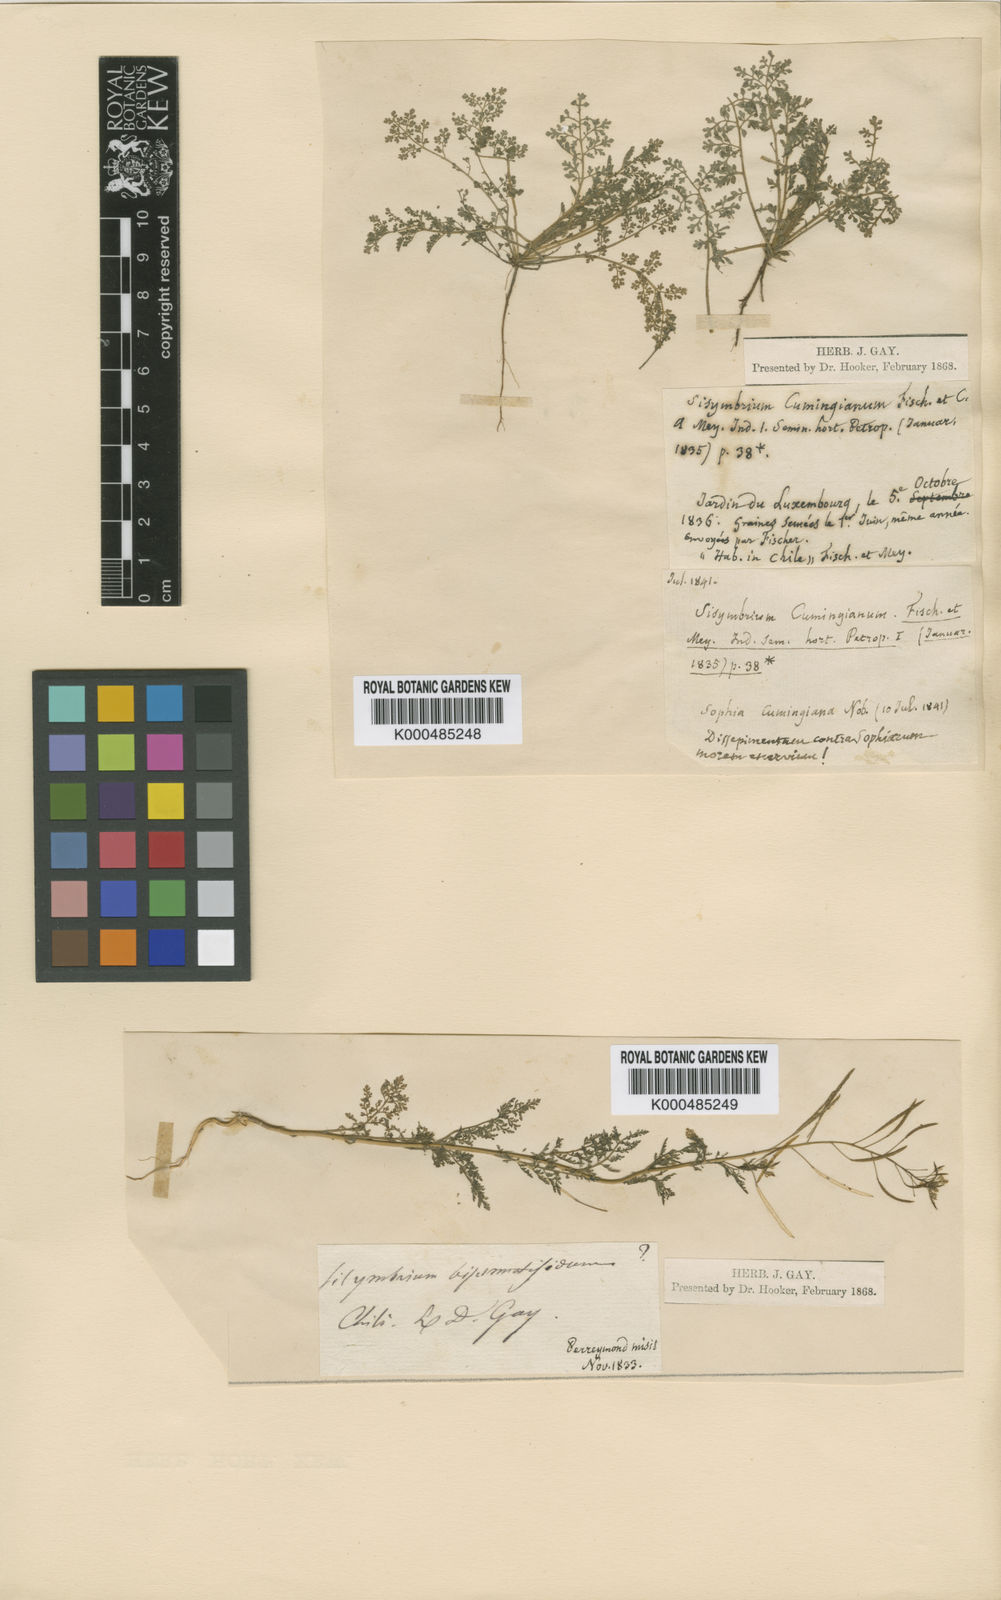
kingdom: Plantae
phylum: Tracheophyta
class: Magnoliopsida
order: Brassicales
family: Brassicaceae
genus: Descurainia
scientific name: Descurainia nuttallii
